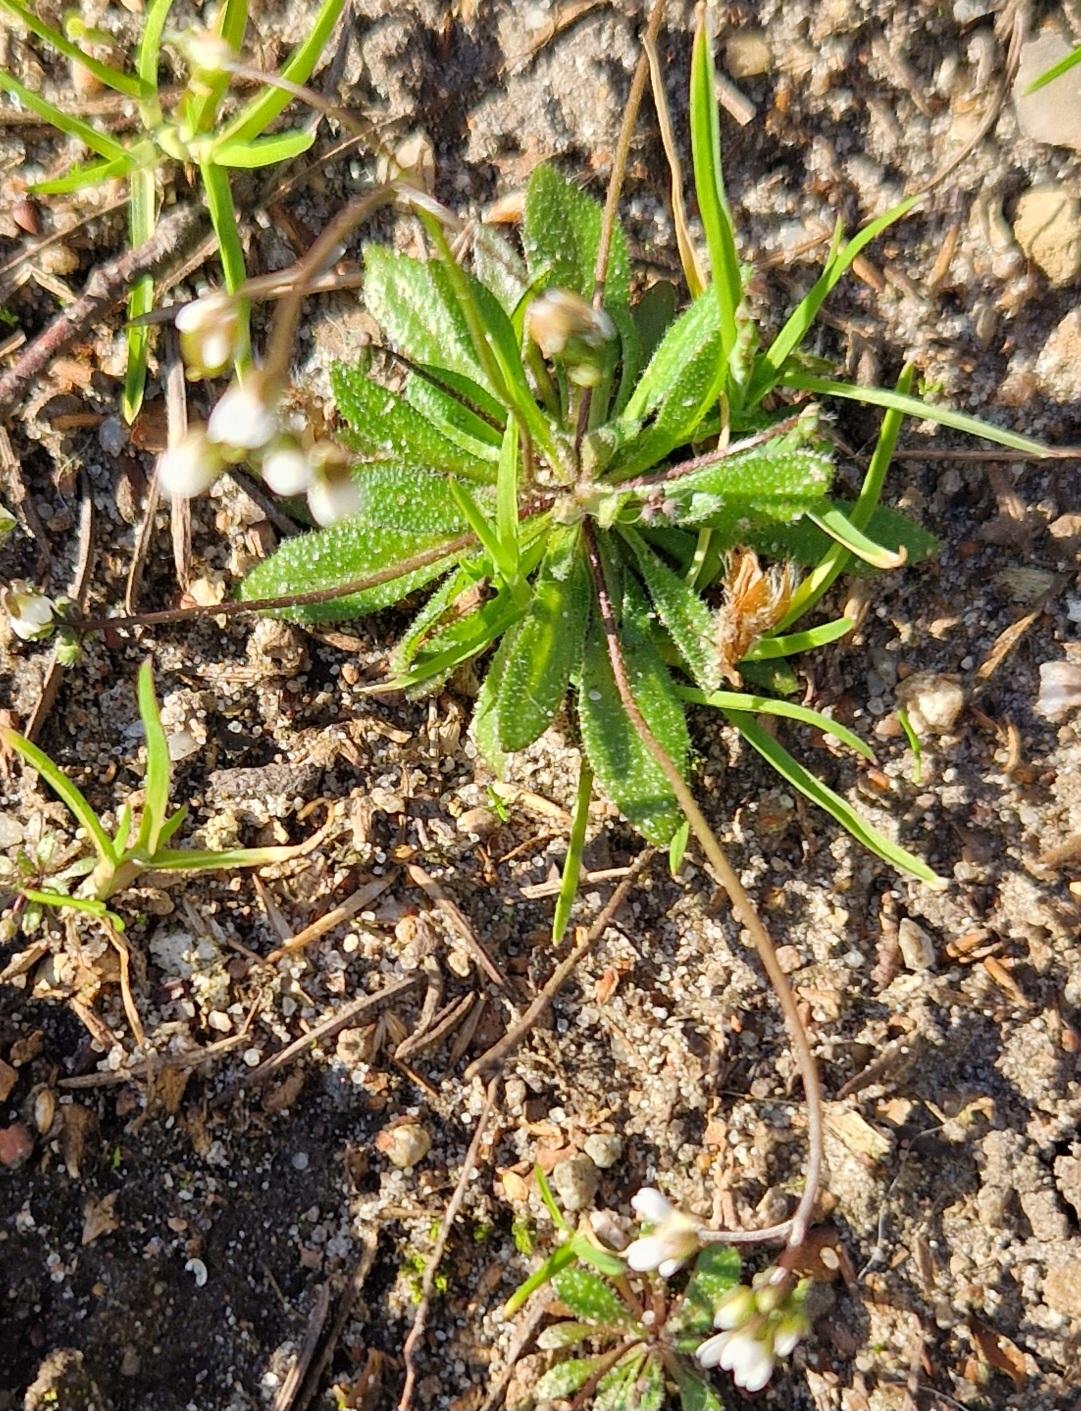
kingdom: Plantae
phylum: Tracheophyta
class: Magnoliopsida
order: Brassicales
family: Brassicaceae
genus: Draba
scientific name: Draba verna
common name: Vår-gæslingeblomst
